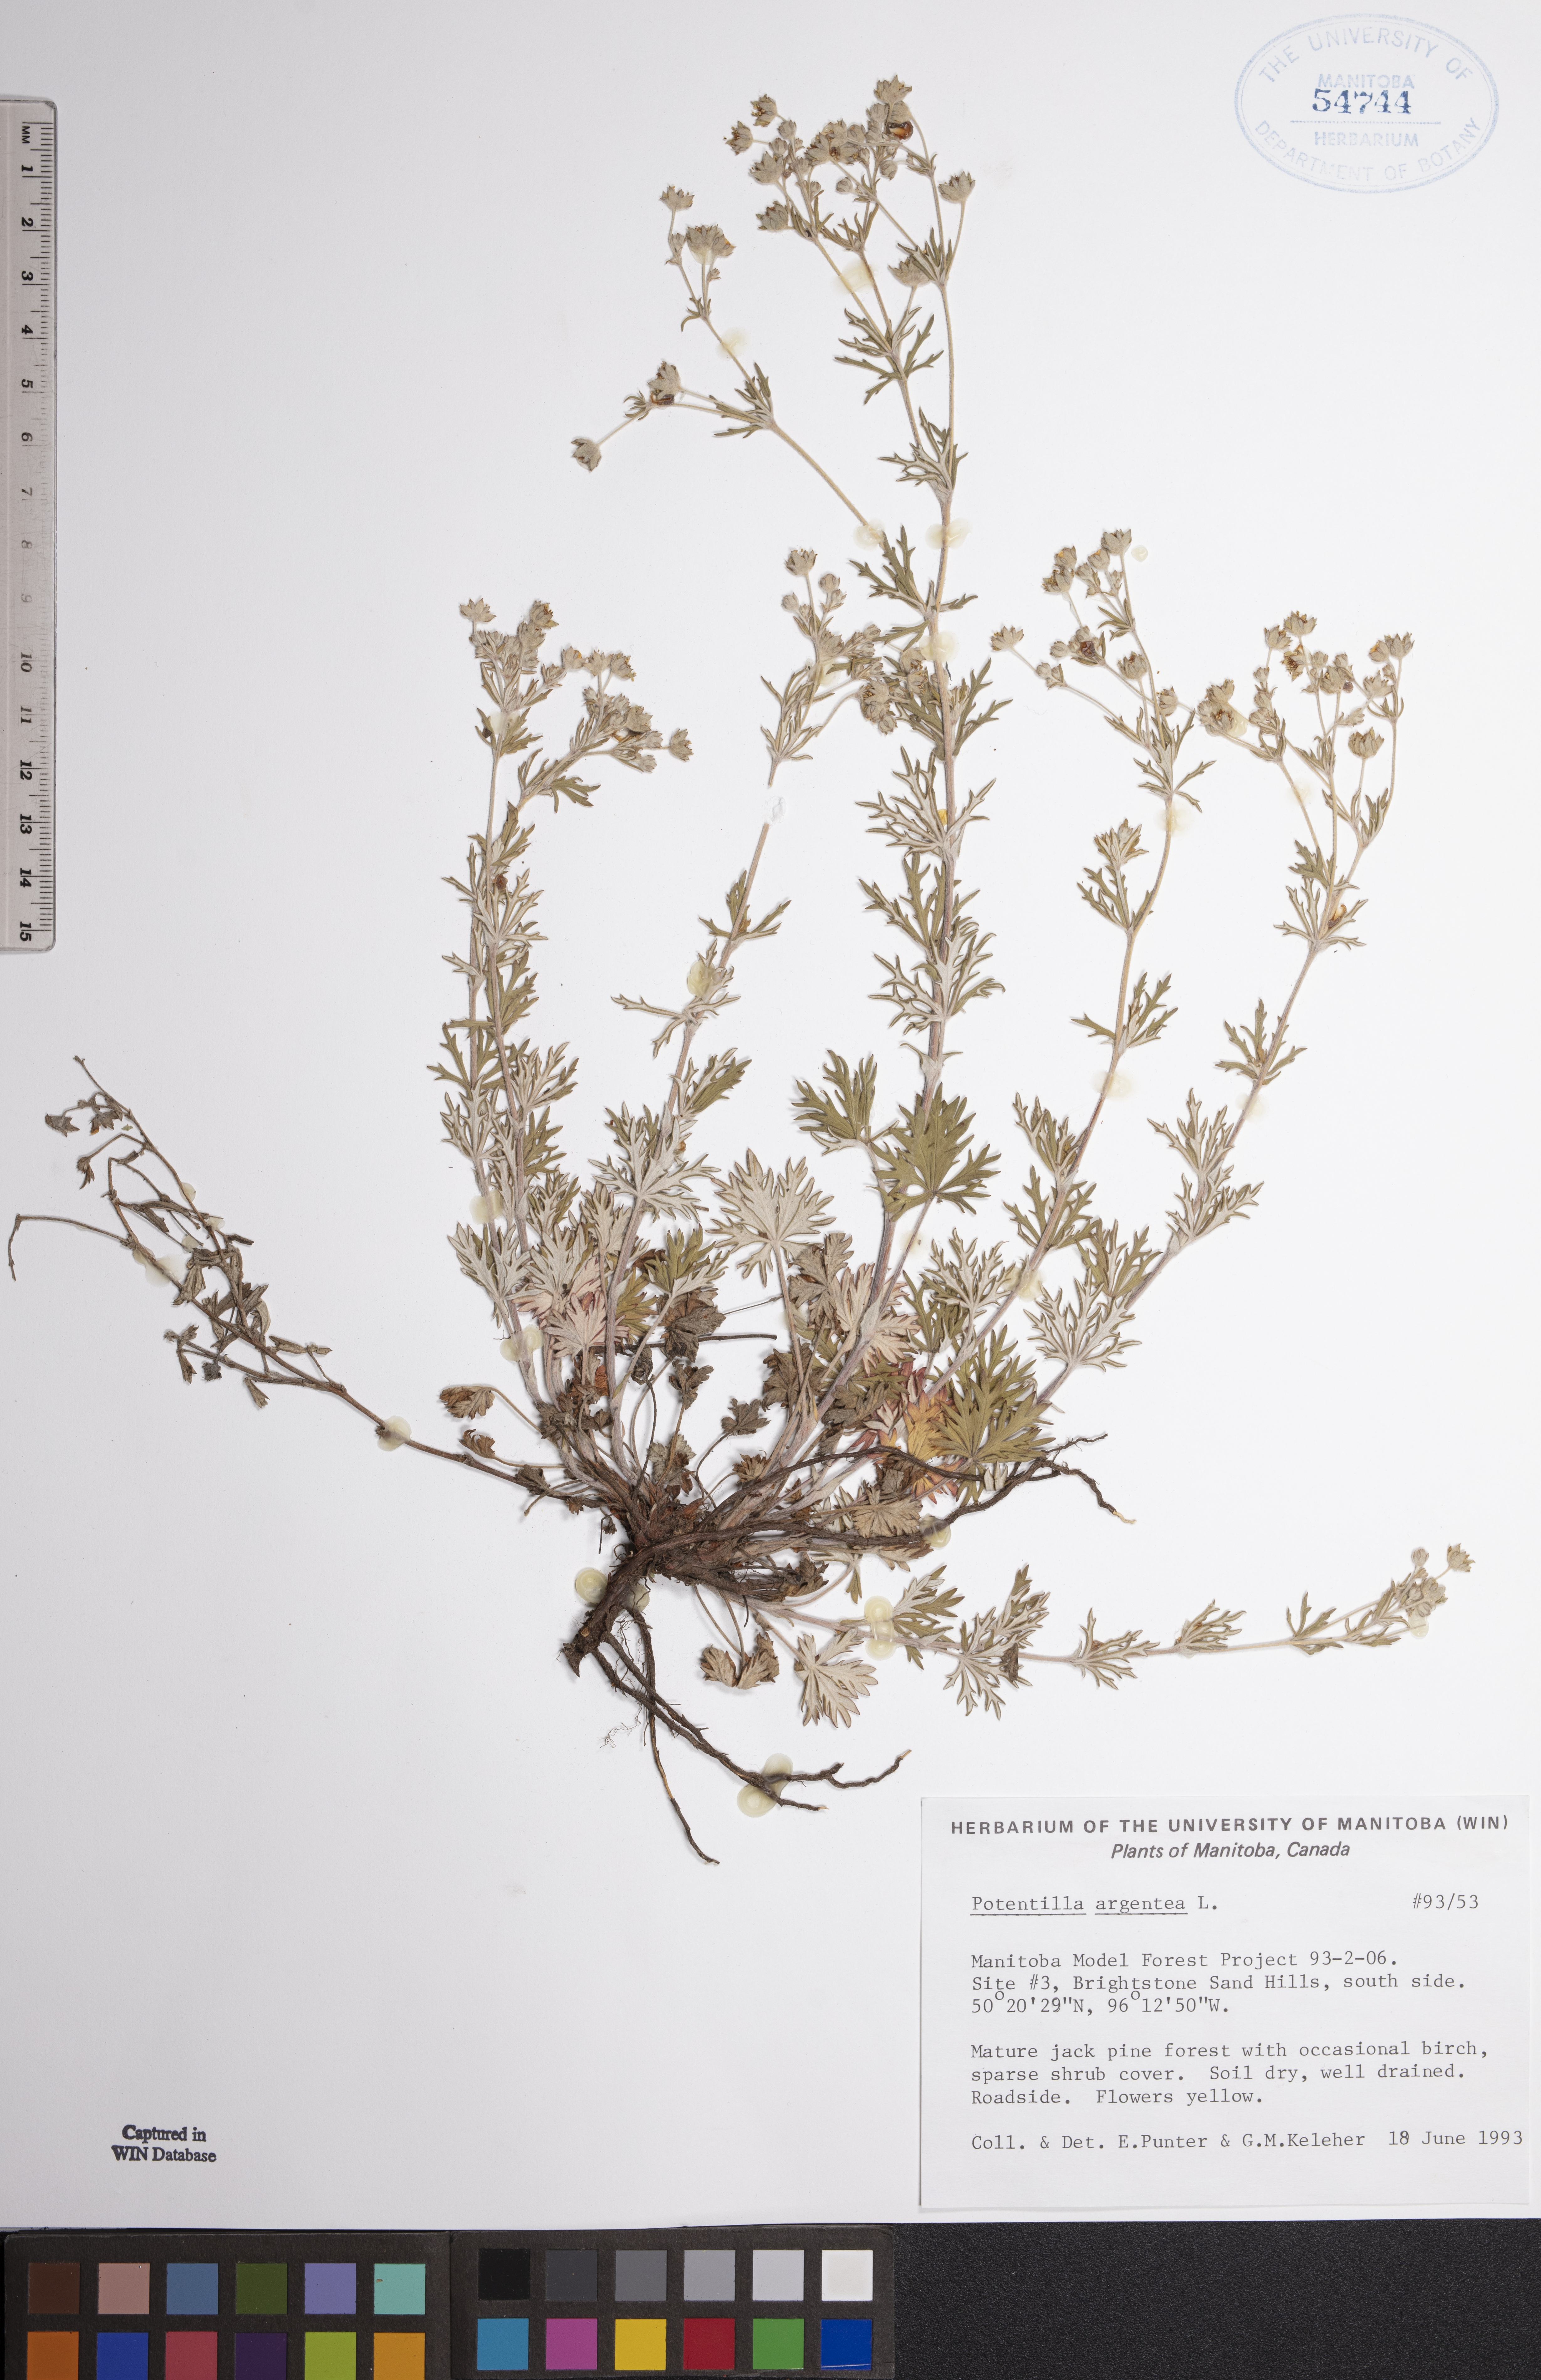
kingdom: Plantae
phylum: Tracheophyta
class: Magnoliopsida
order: Rosales
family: Rosaceae
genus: Potentilla
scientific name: Potentilla argentea
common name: Hoary cinquefoil
